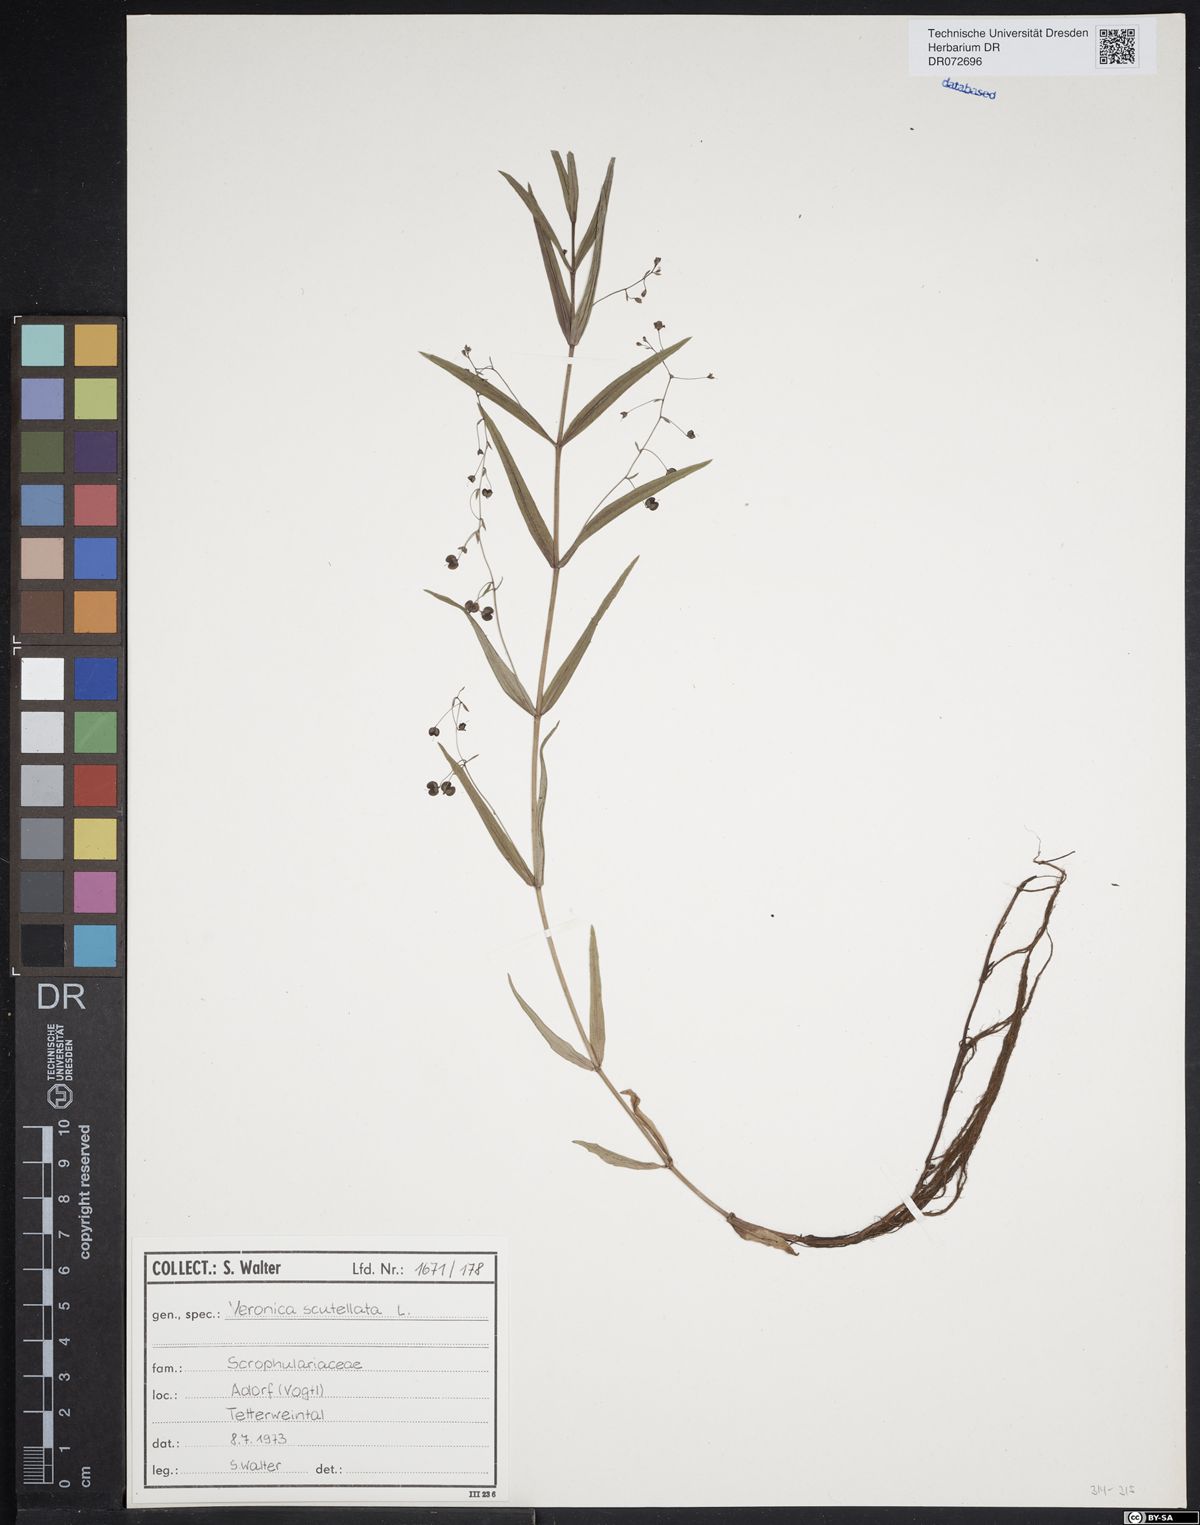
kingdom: Plantae
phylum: Tracheophyta
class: Magnoliopsida
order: Lamiales
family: Plantaginaceae
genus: Veronica
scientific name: Veronica scutellata
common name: Marsh speedwell
